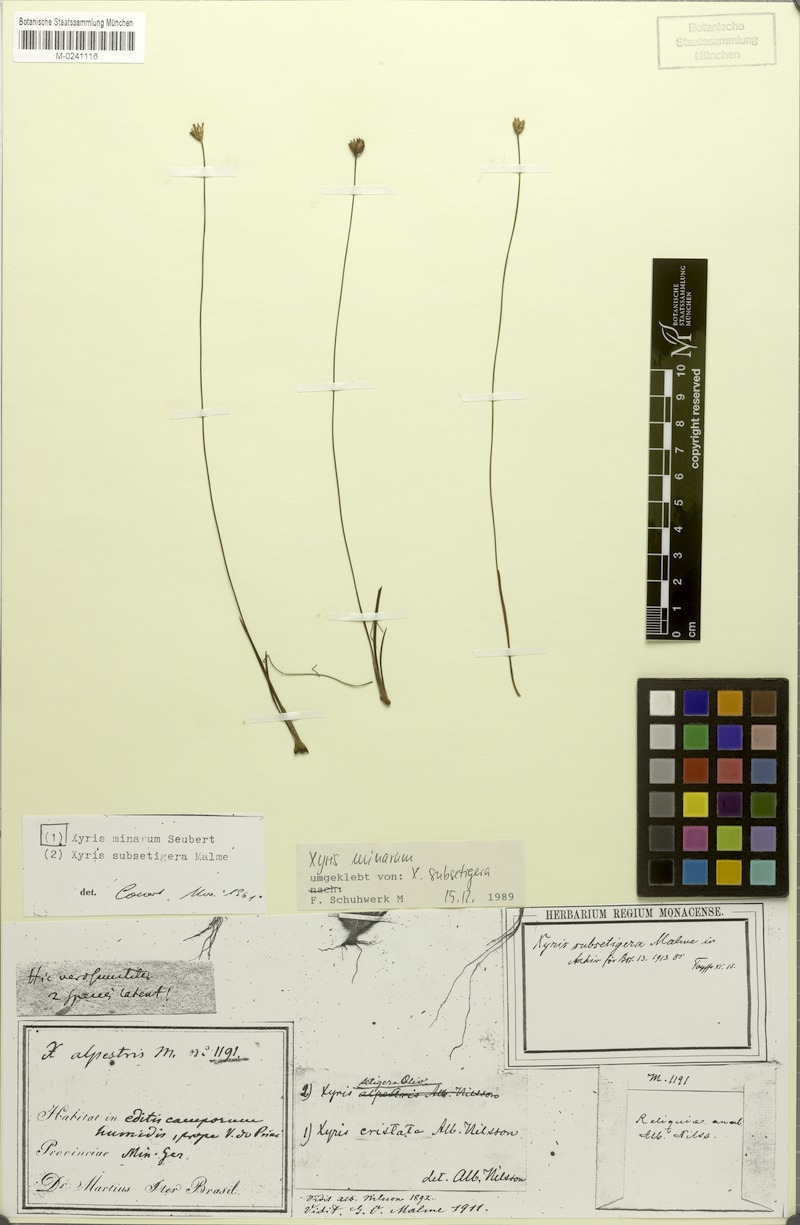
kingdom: Plantae
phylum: Tracheophyta
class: Liliopsida
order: Poales
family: Xyridaceae
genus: Xyris
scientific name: Xyris minarum
